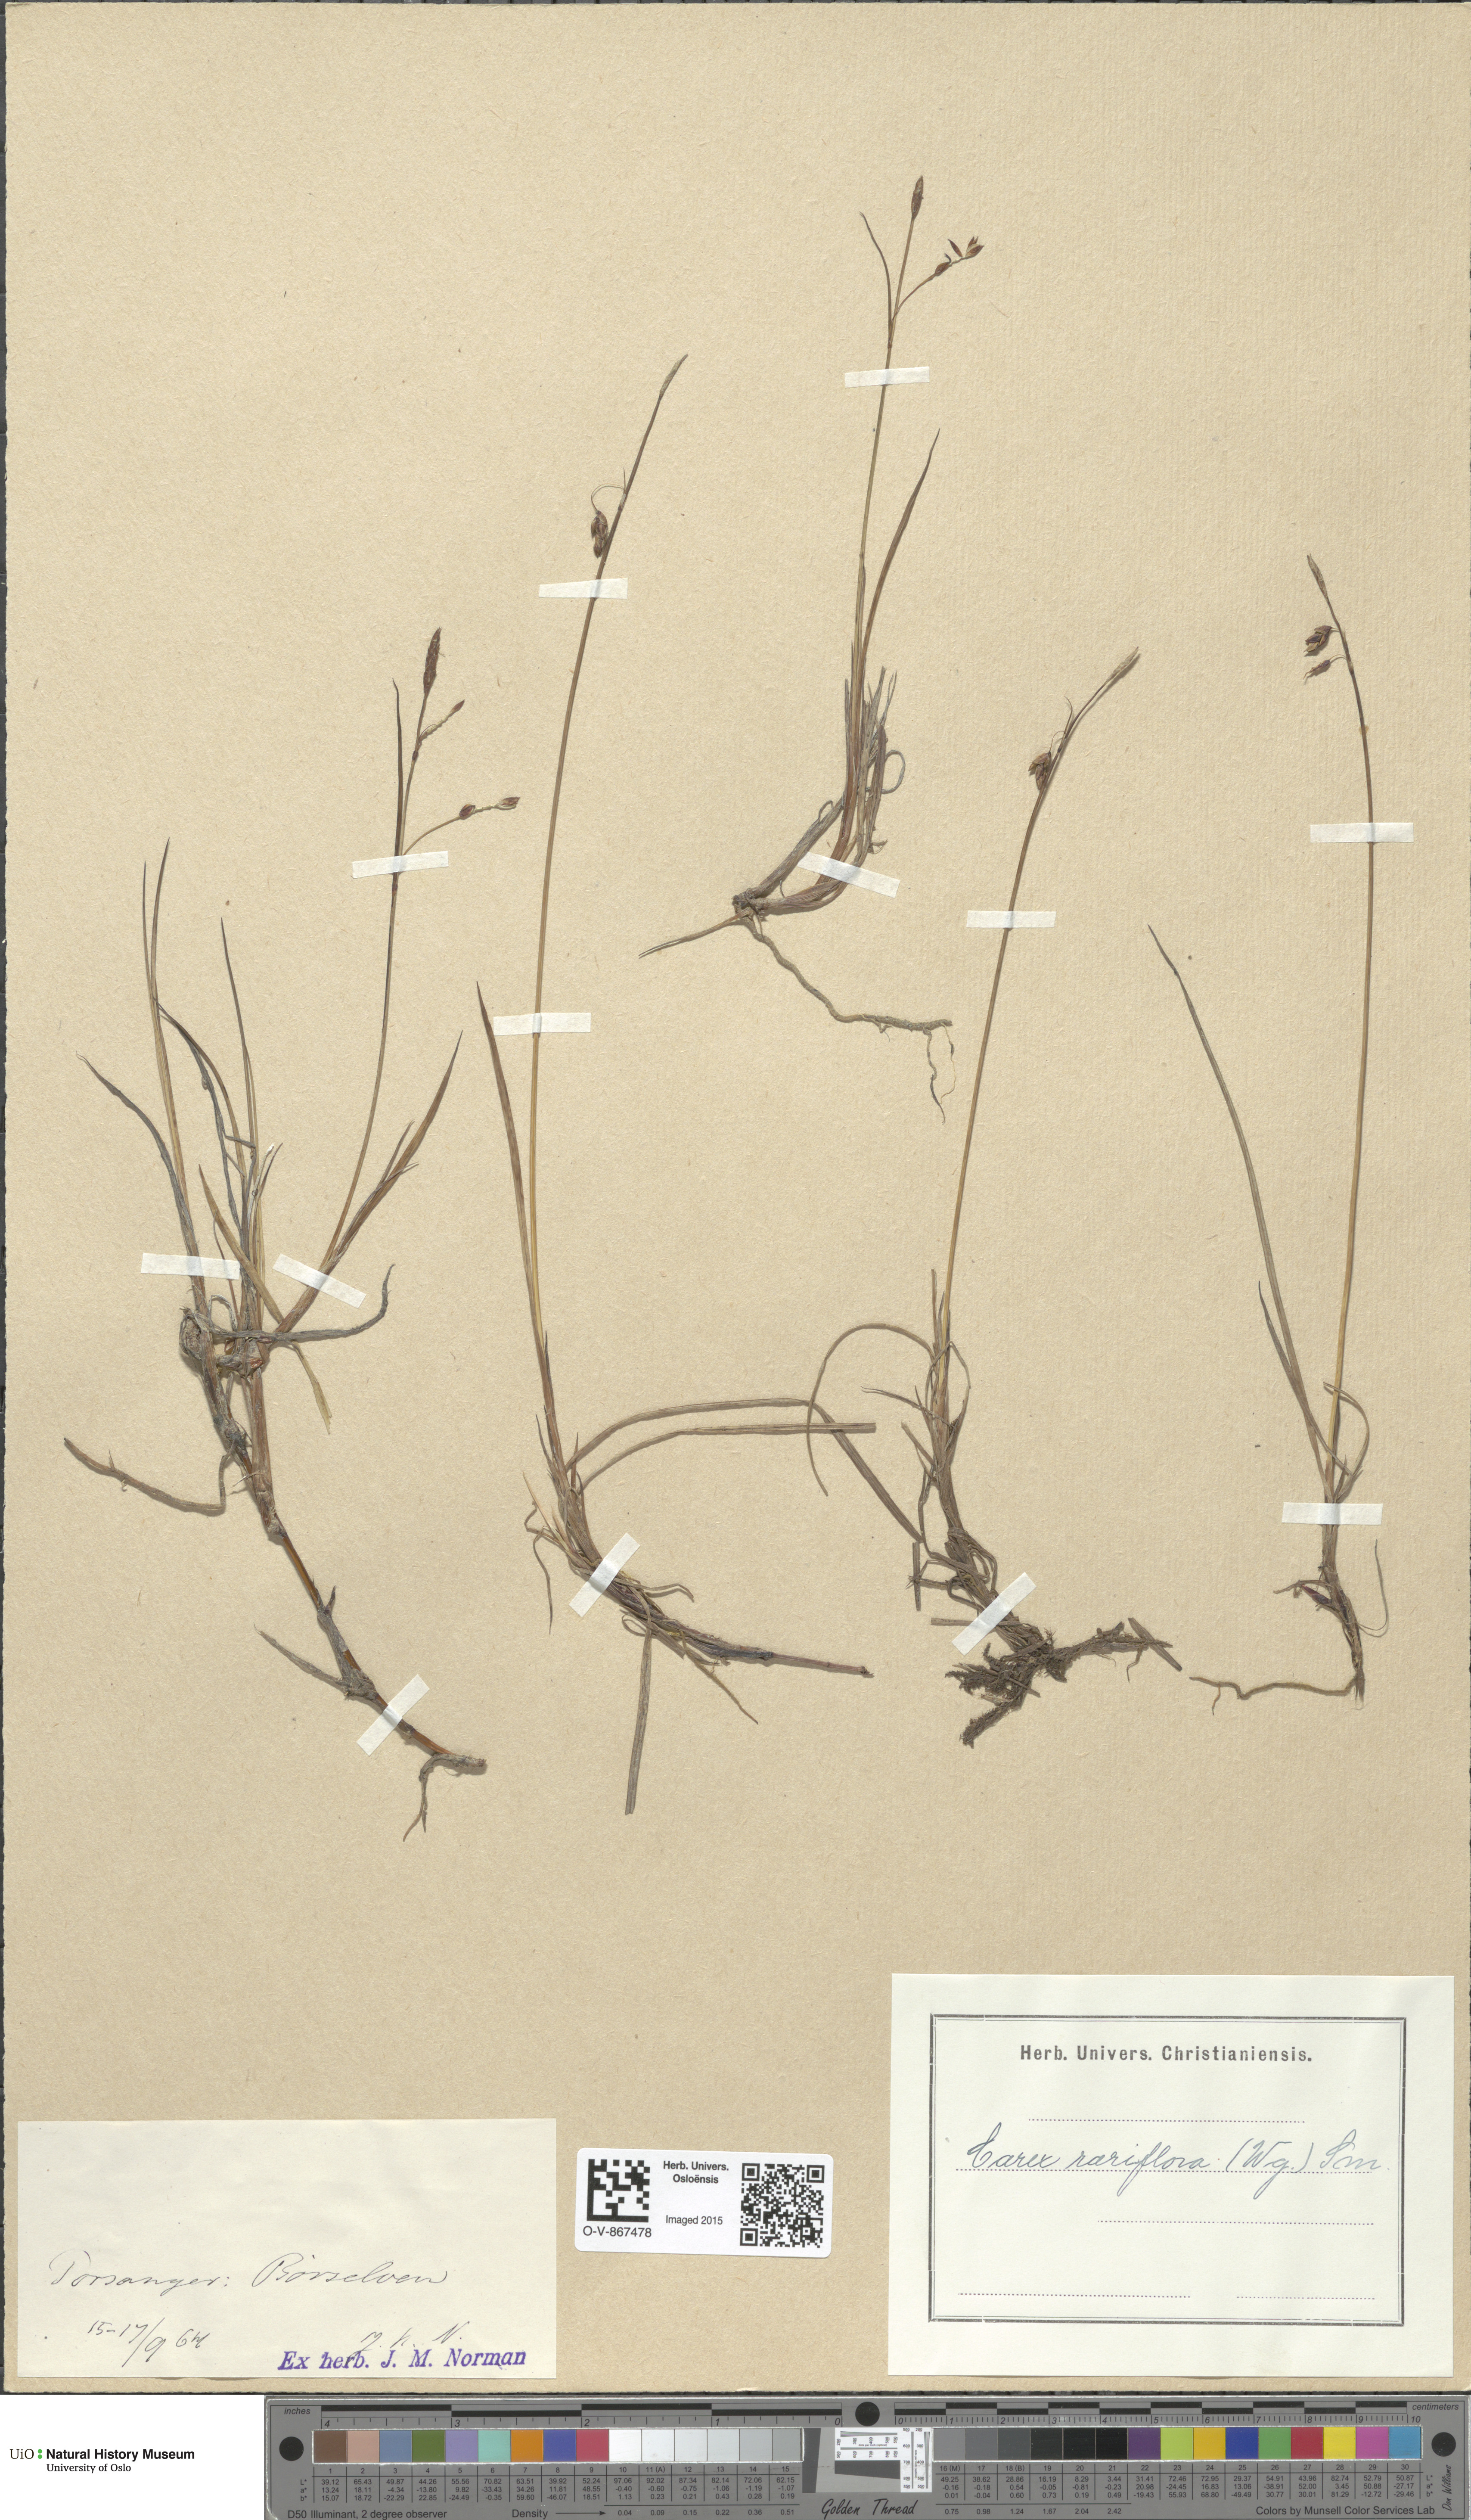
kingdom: Plantae
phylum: Tracheophyta
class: Liliopsida
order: Poales
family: Cyperaceae
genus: Carex
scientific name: Carex rariflora
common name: Loose-flowered alpine sedge
